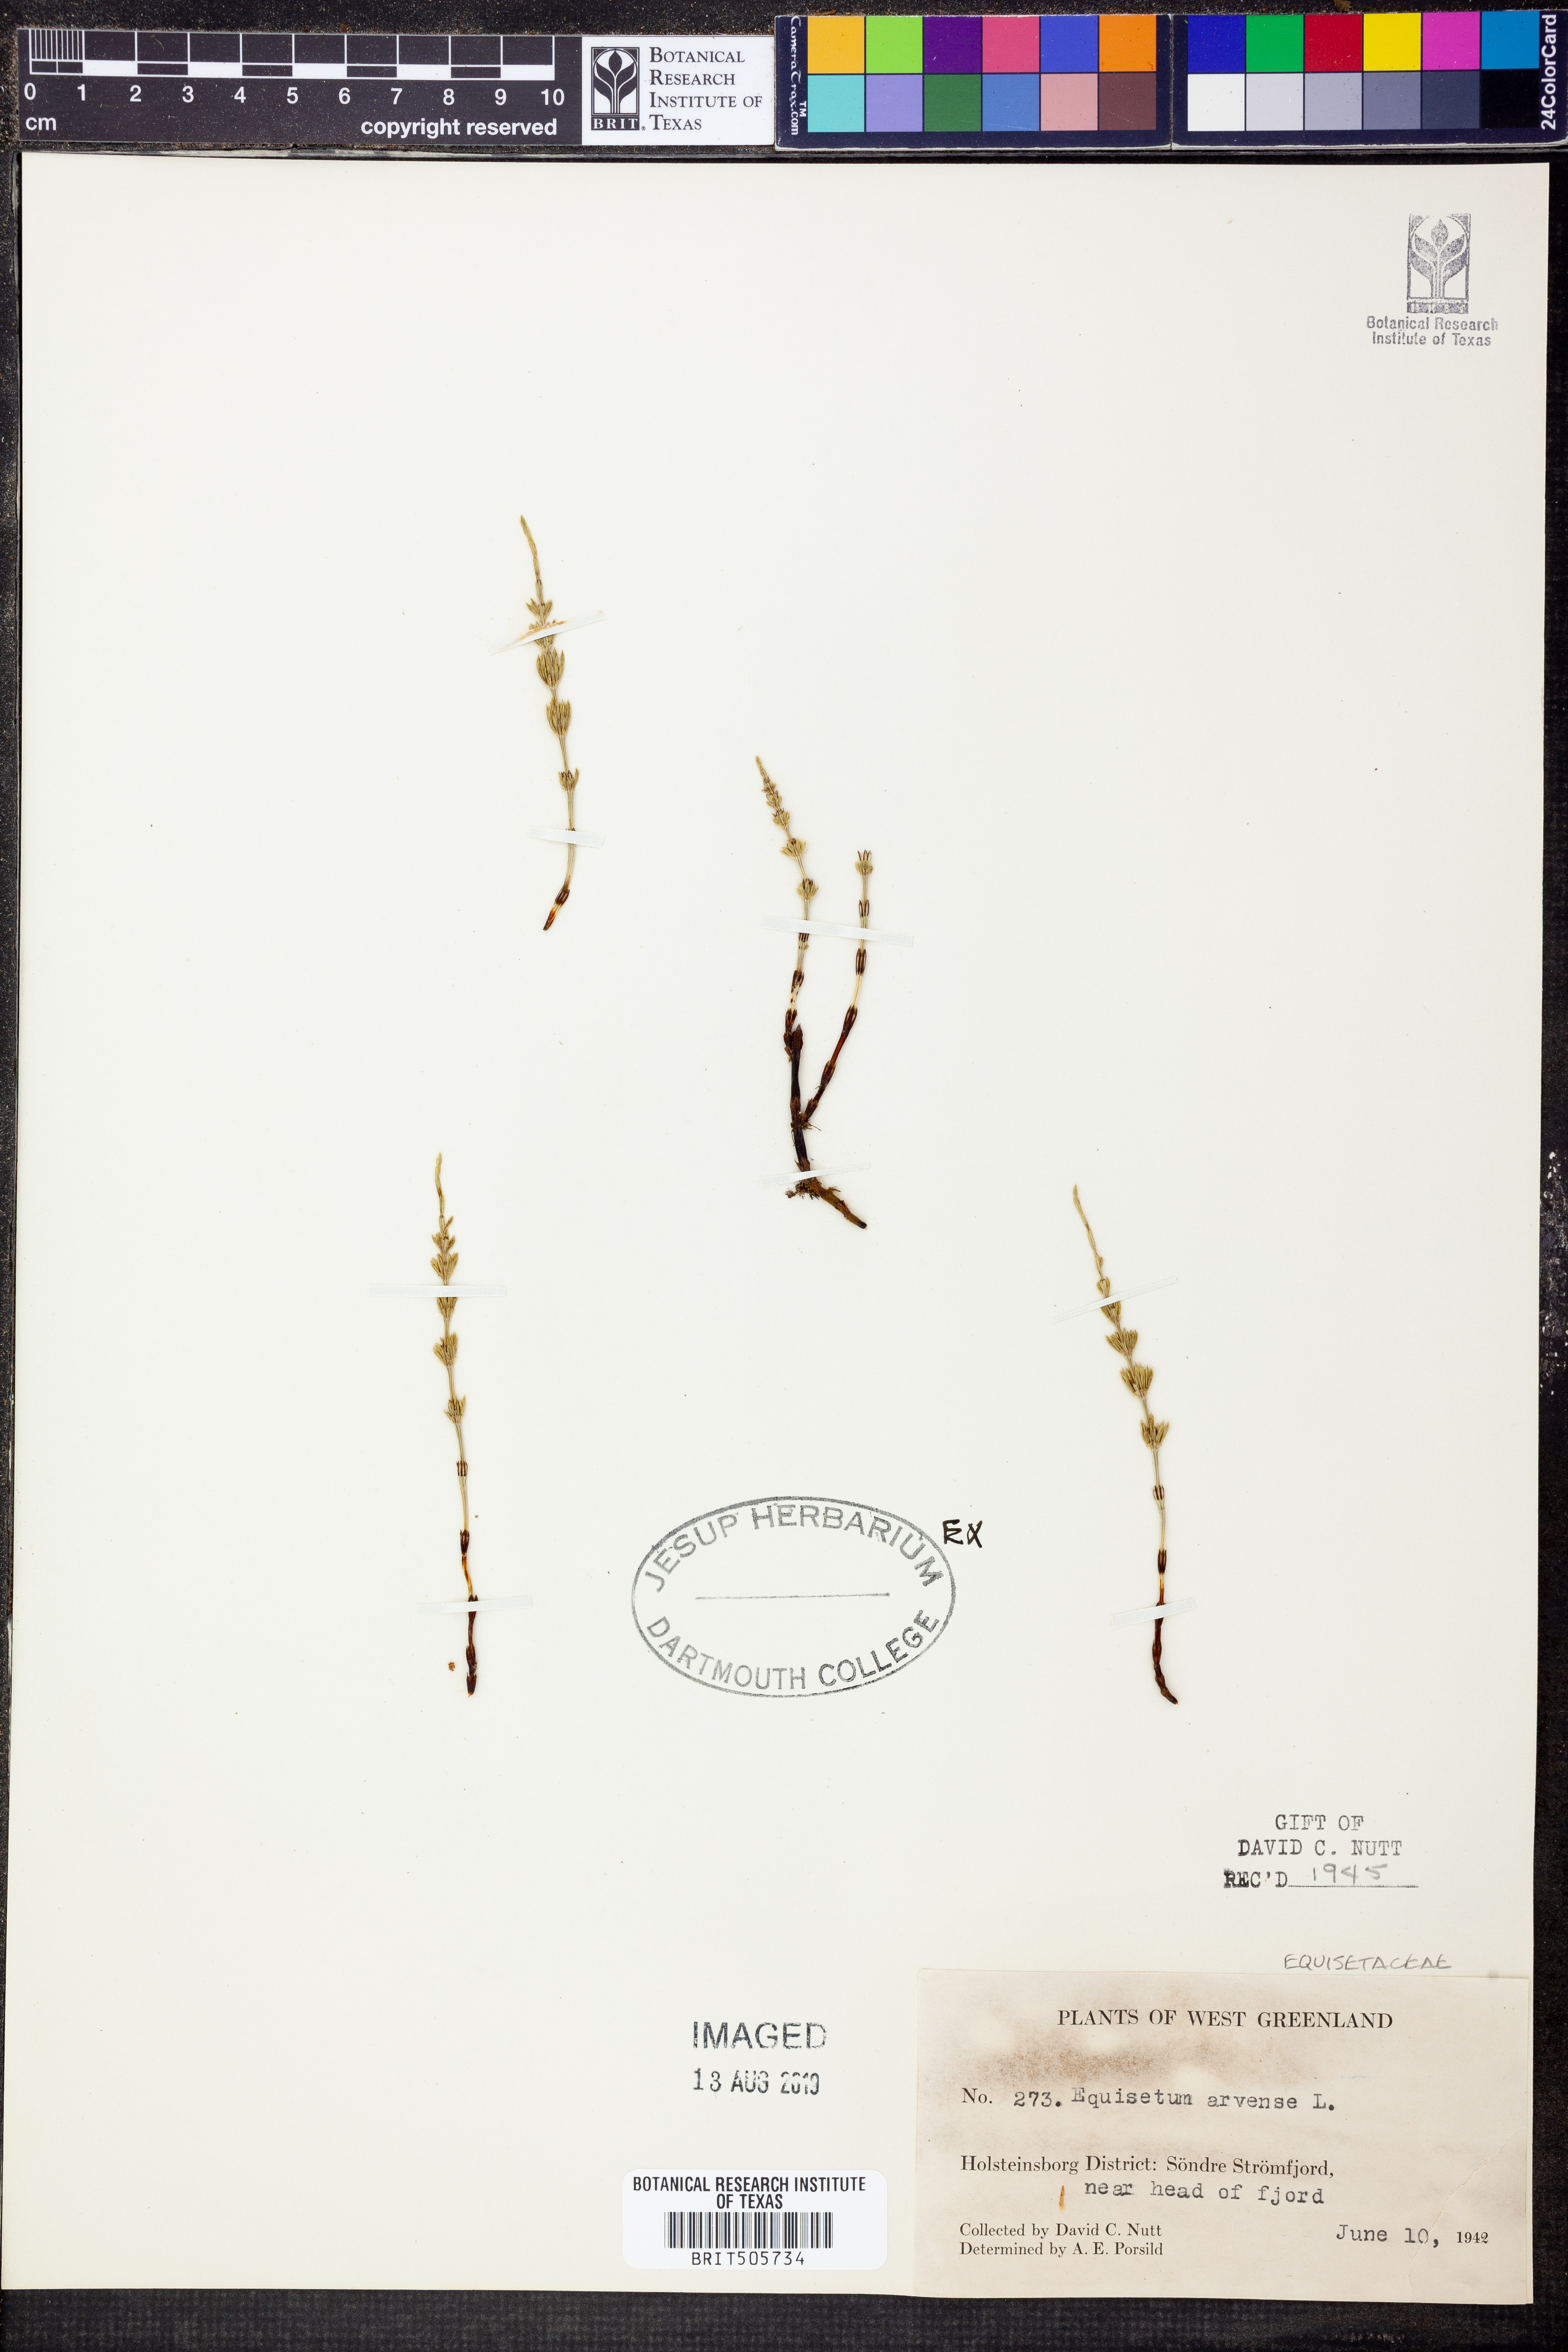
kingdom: Plantae
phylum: Tracheophyta
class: Polypodiopsida
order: Equisetales
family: Equisetaceae
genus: Equisetum
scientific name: Equisetum arvense
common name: Field horsetail
